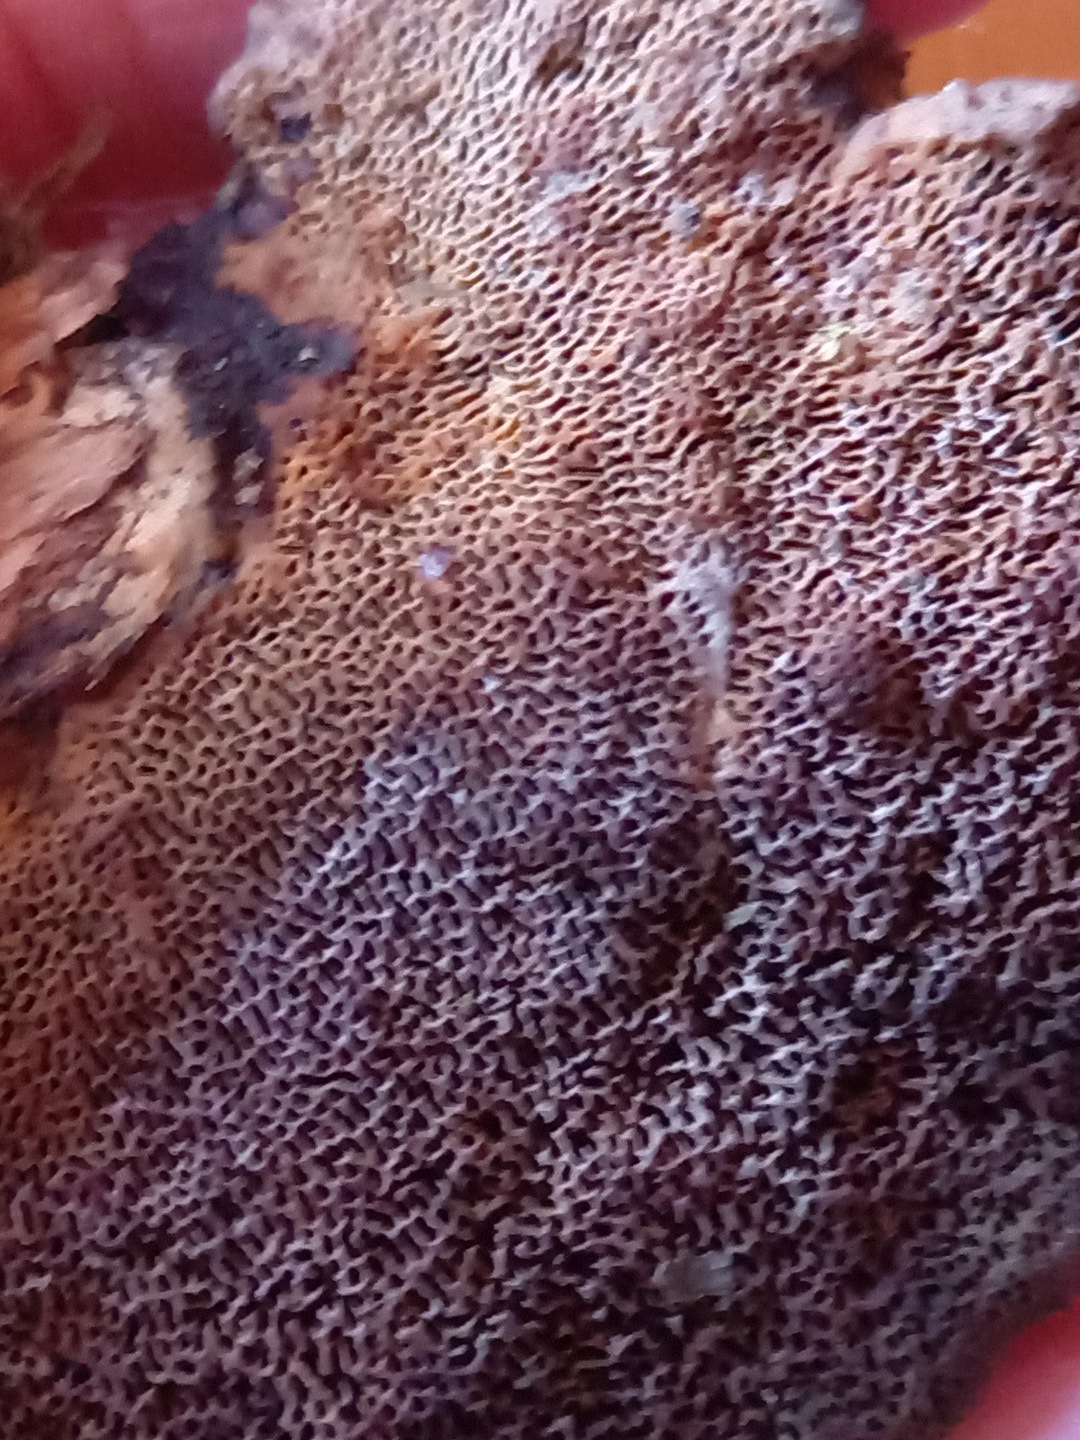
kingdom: Fungi
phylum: Basidiomycota
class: Agaricomycetes
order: Polyporales
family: Polyporaceae
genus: Daedaleopsis
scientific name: Daedaleopsis confragosa
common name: rødmende læderporesvamp
